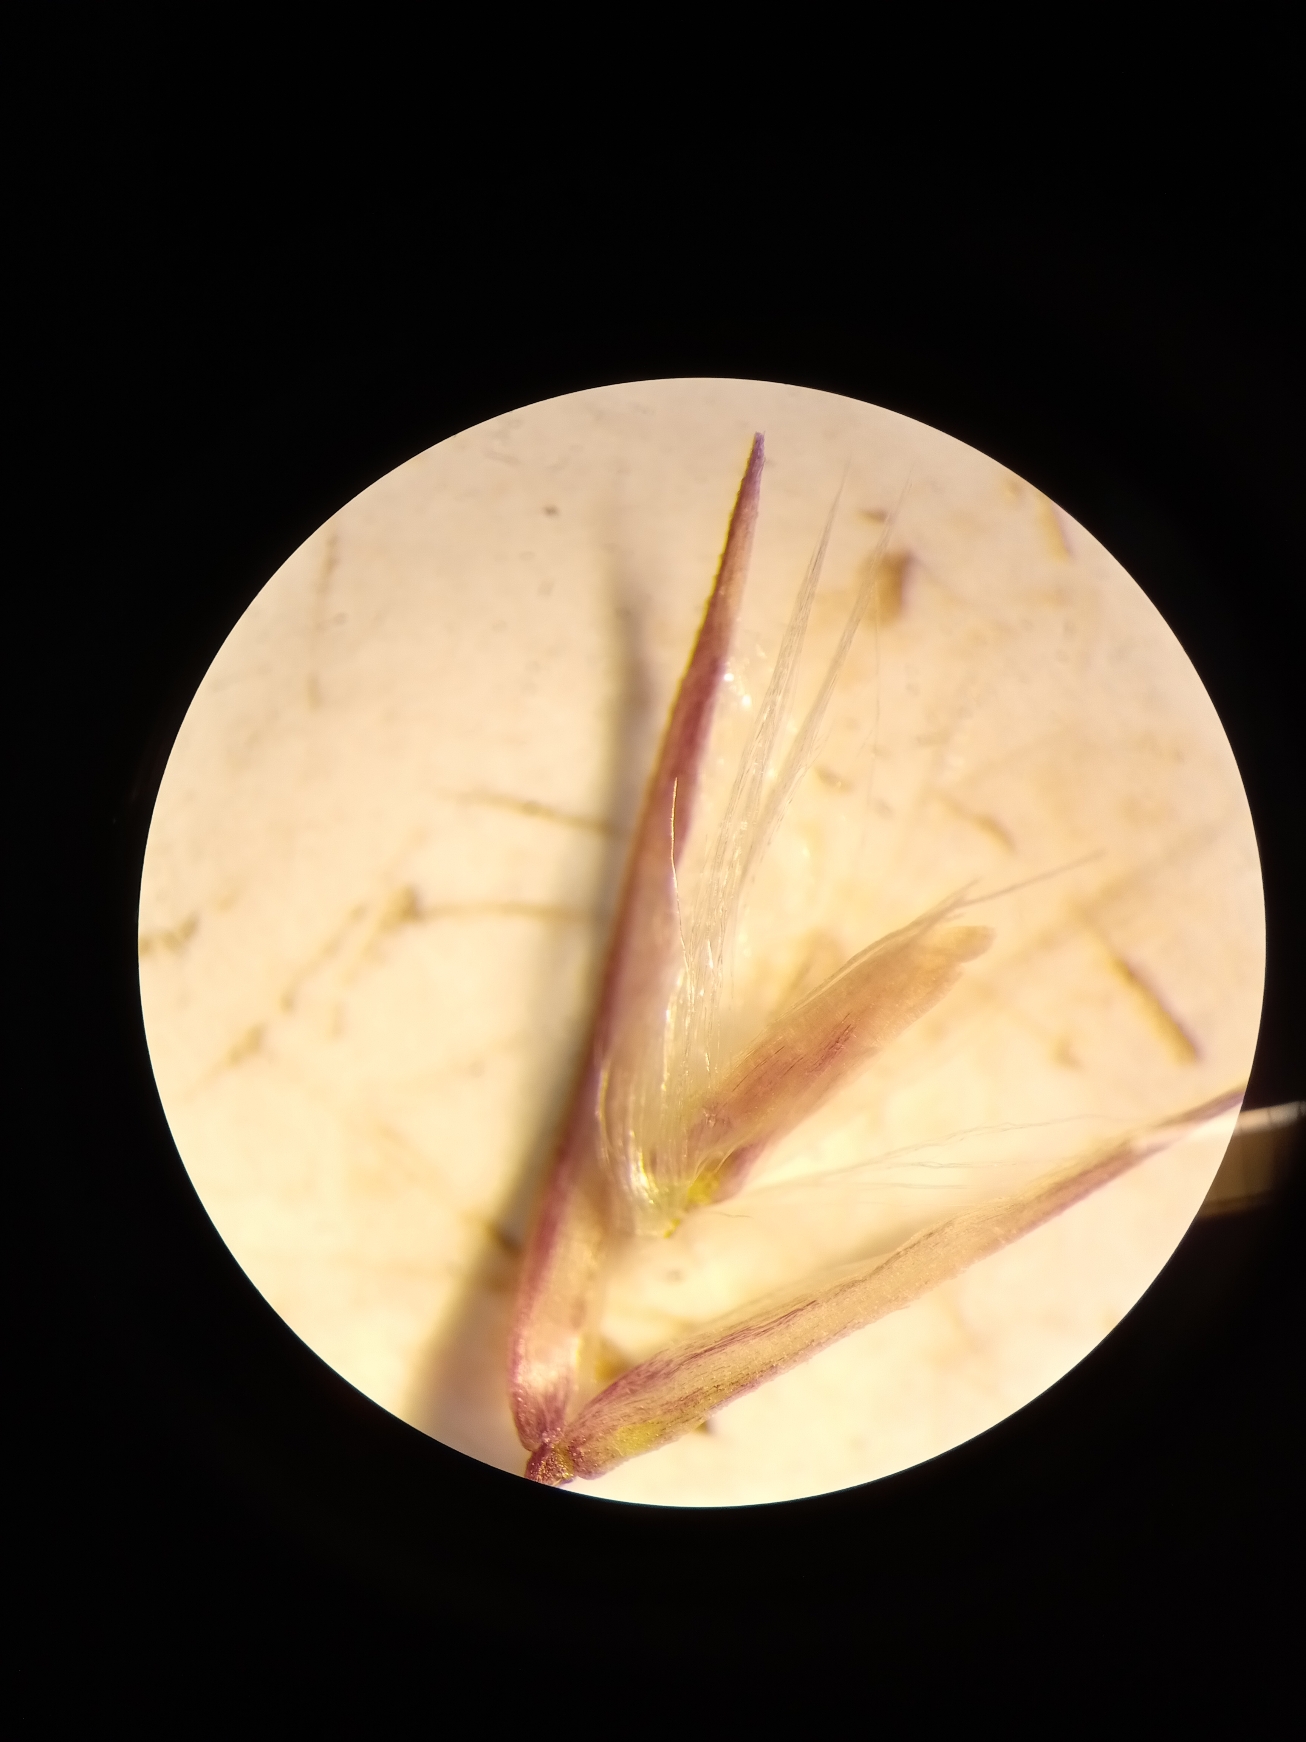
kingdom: Plantae
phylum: Tracheophyta
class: Liliopsida
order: Poales
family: Poaceae
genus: Calamagrostis
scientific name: Calamagrostis epigejos
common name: Bjerg-rørhvene
